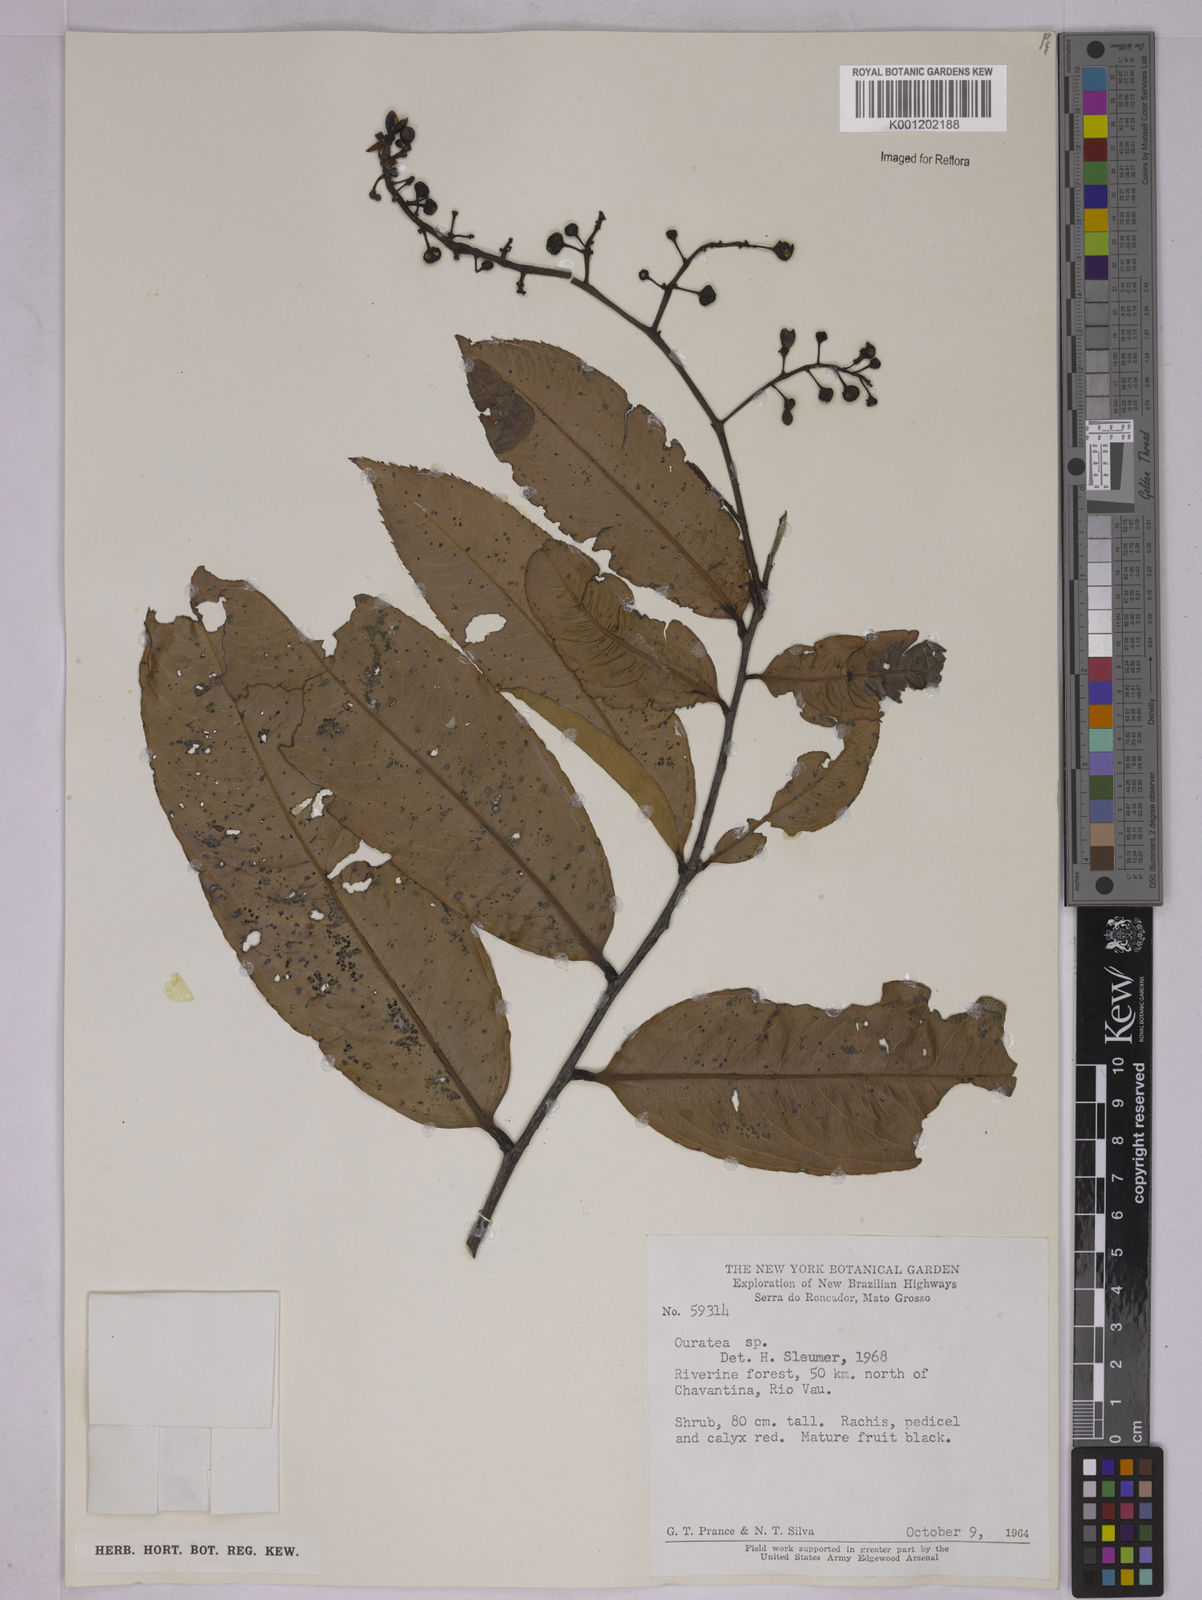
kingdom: Plantae
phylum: Tracheophyta
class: Magnoliopsida
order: Malpighiales
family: Ochnaceae
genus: Ouratea
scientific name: Ouratea
